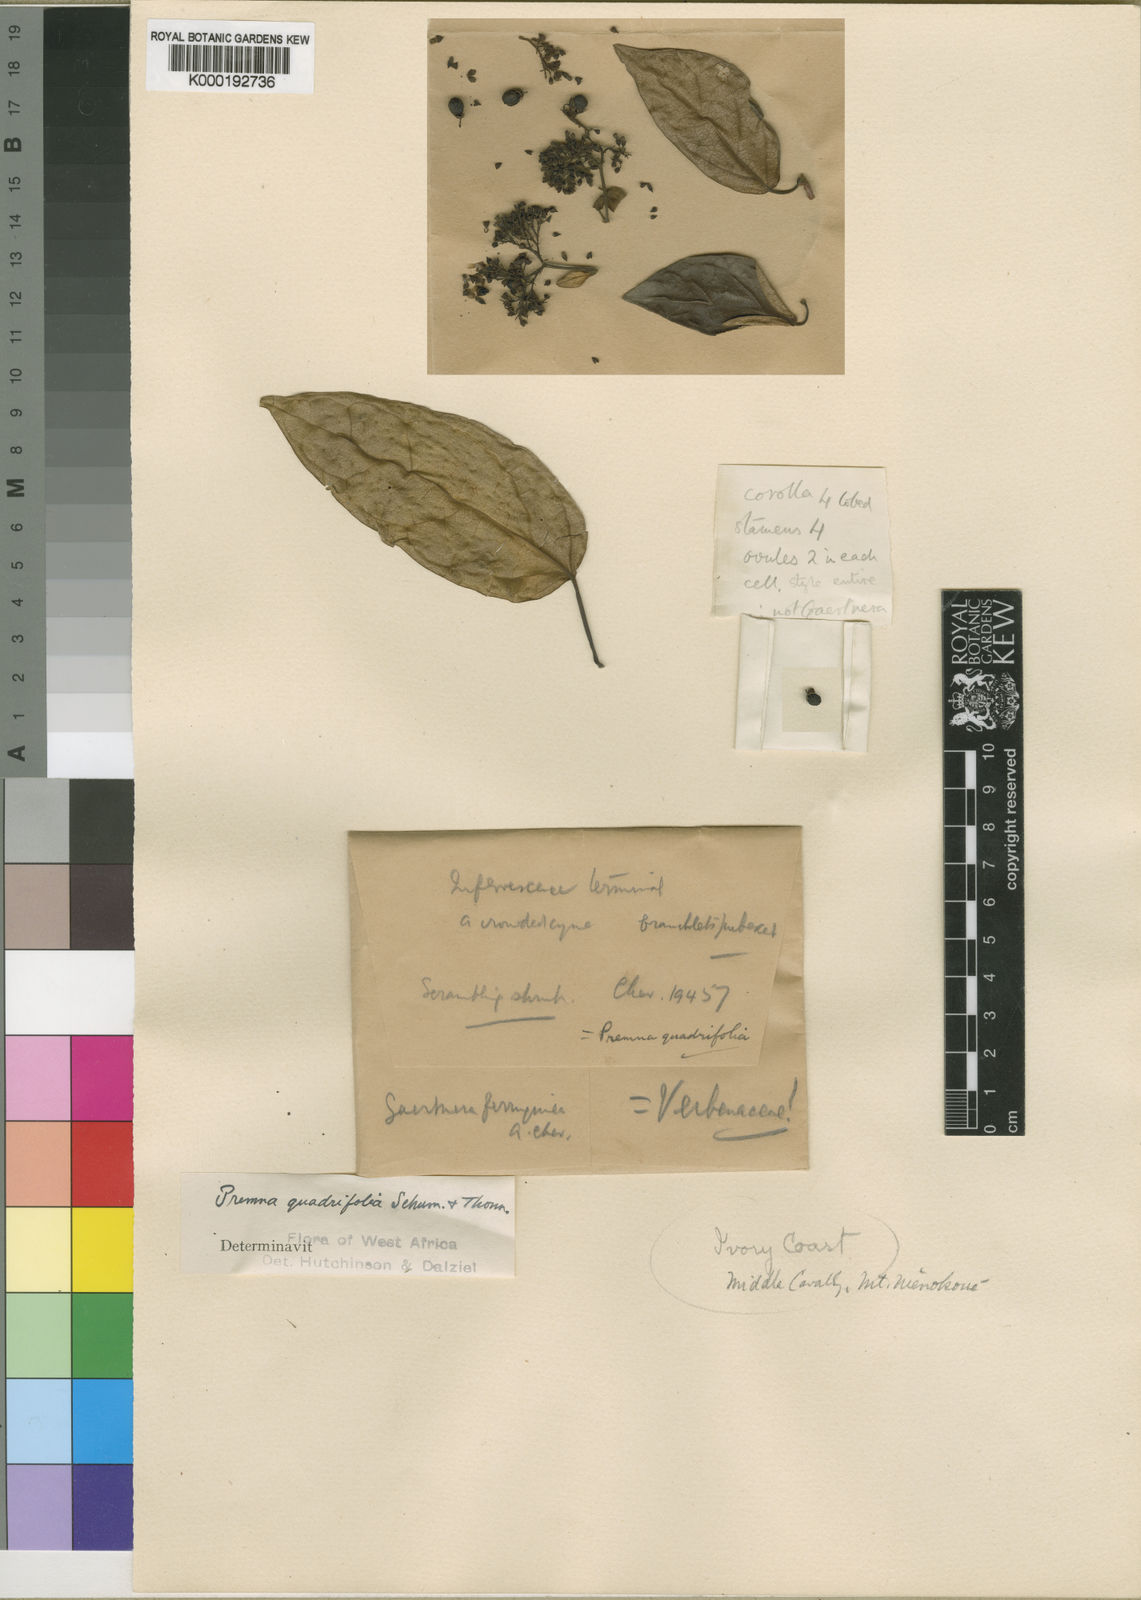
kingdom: Plantae
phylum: Tracheophyta
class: Magnoliopsida
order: Lamiales
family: Lamiaceae
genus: Premna
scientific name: Premna quadrifolia
